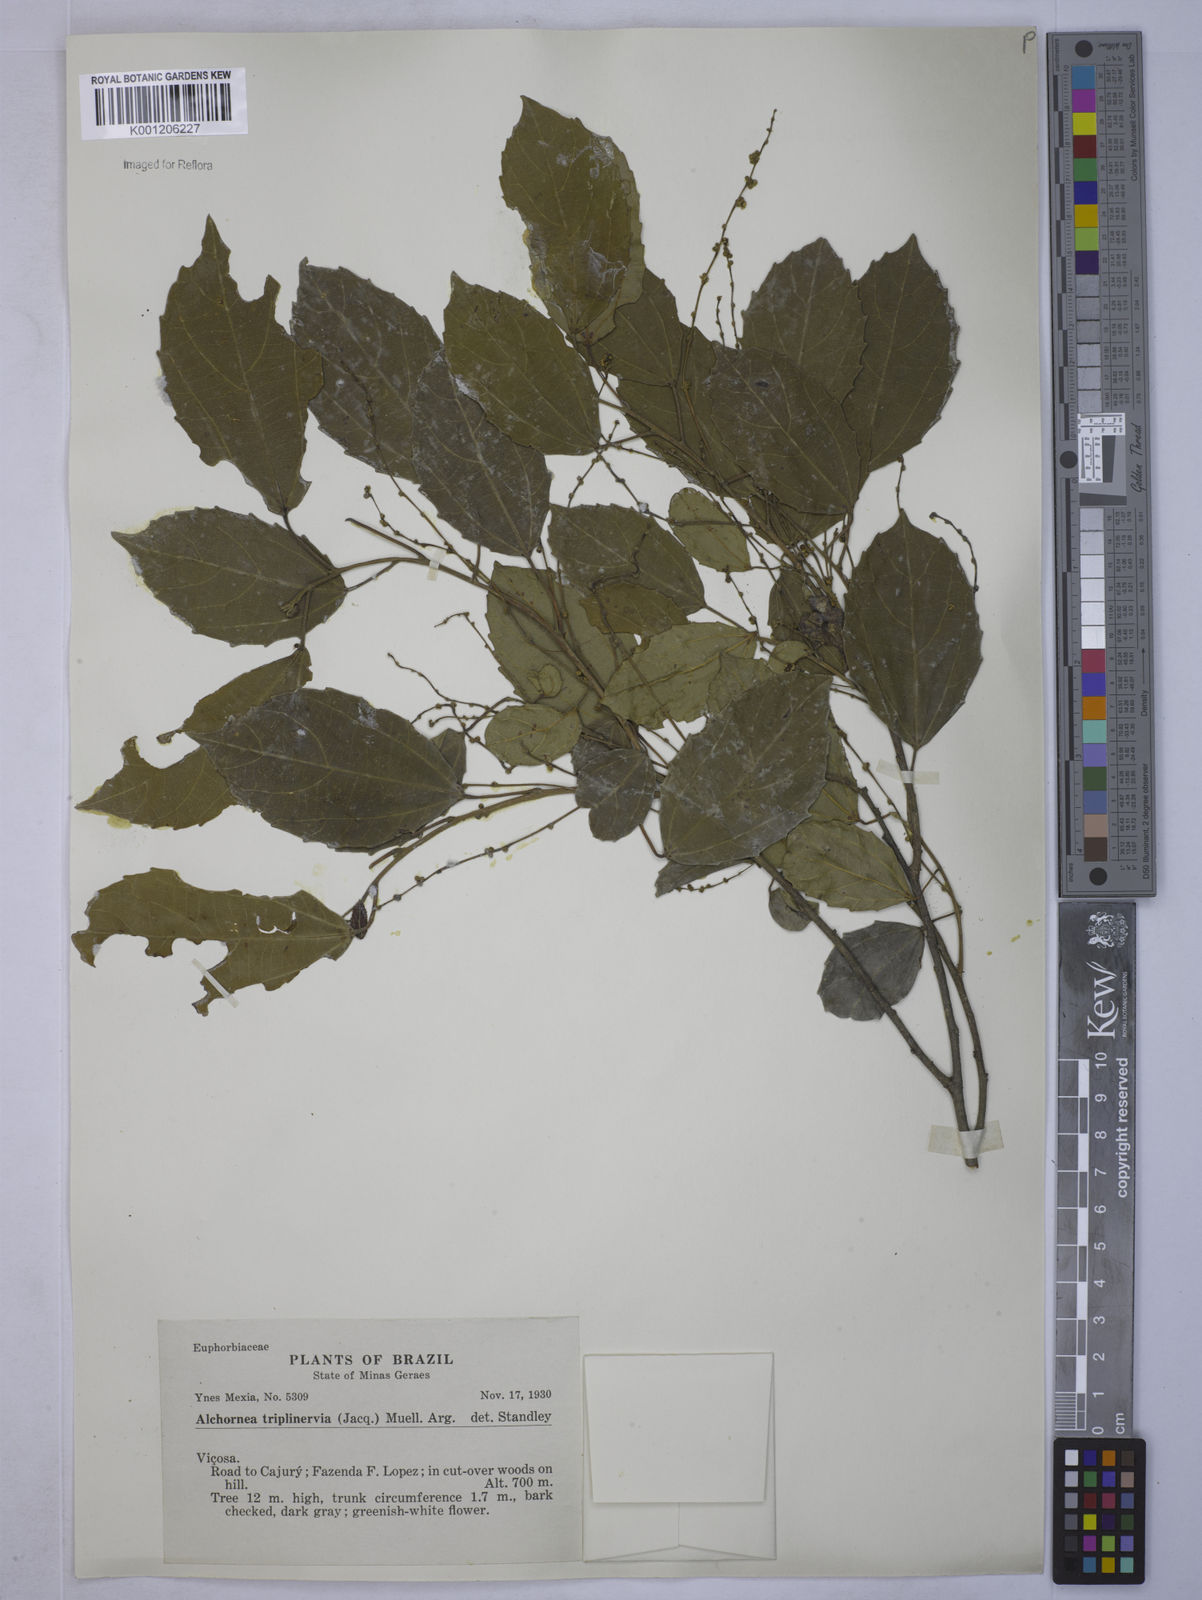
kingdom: Plantae
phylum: Tracheophyta
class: Magnoliopsida
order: Malpighiales
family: Euphorbiaceae
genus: Alchornea
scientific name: Alchornea
